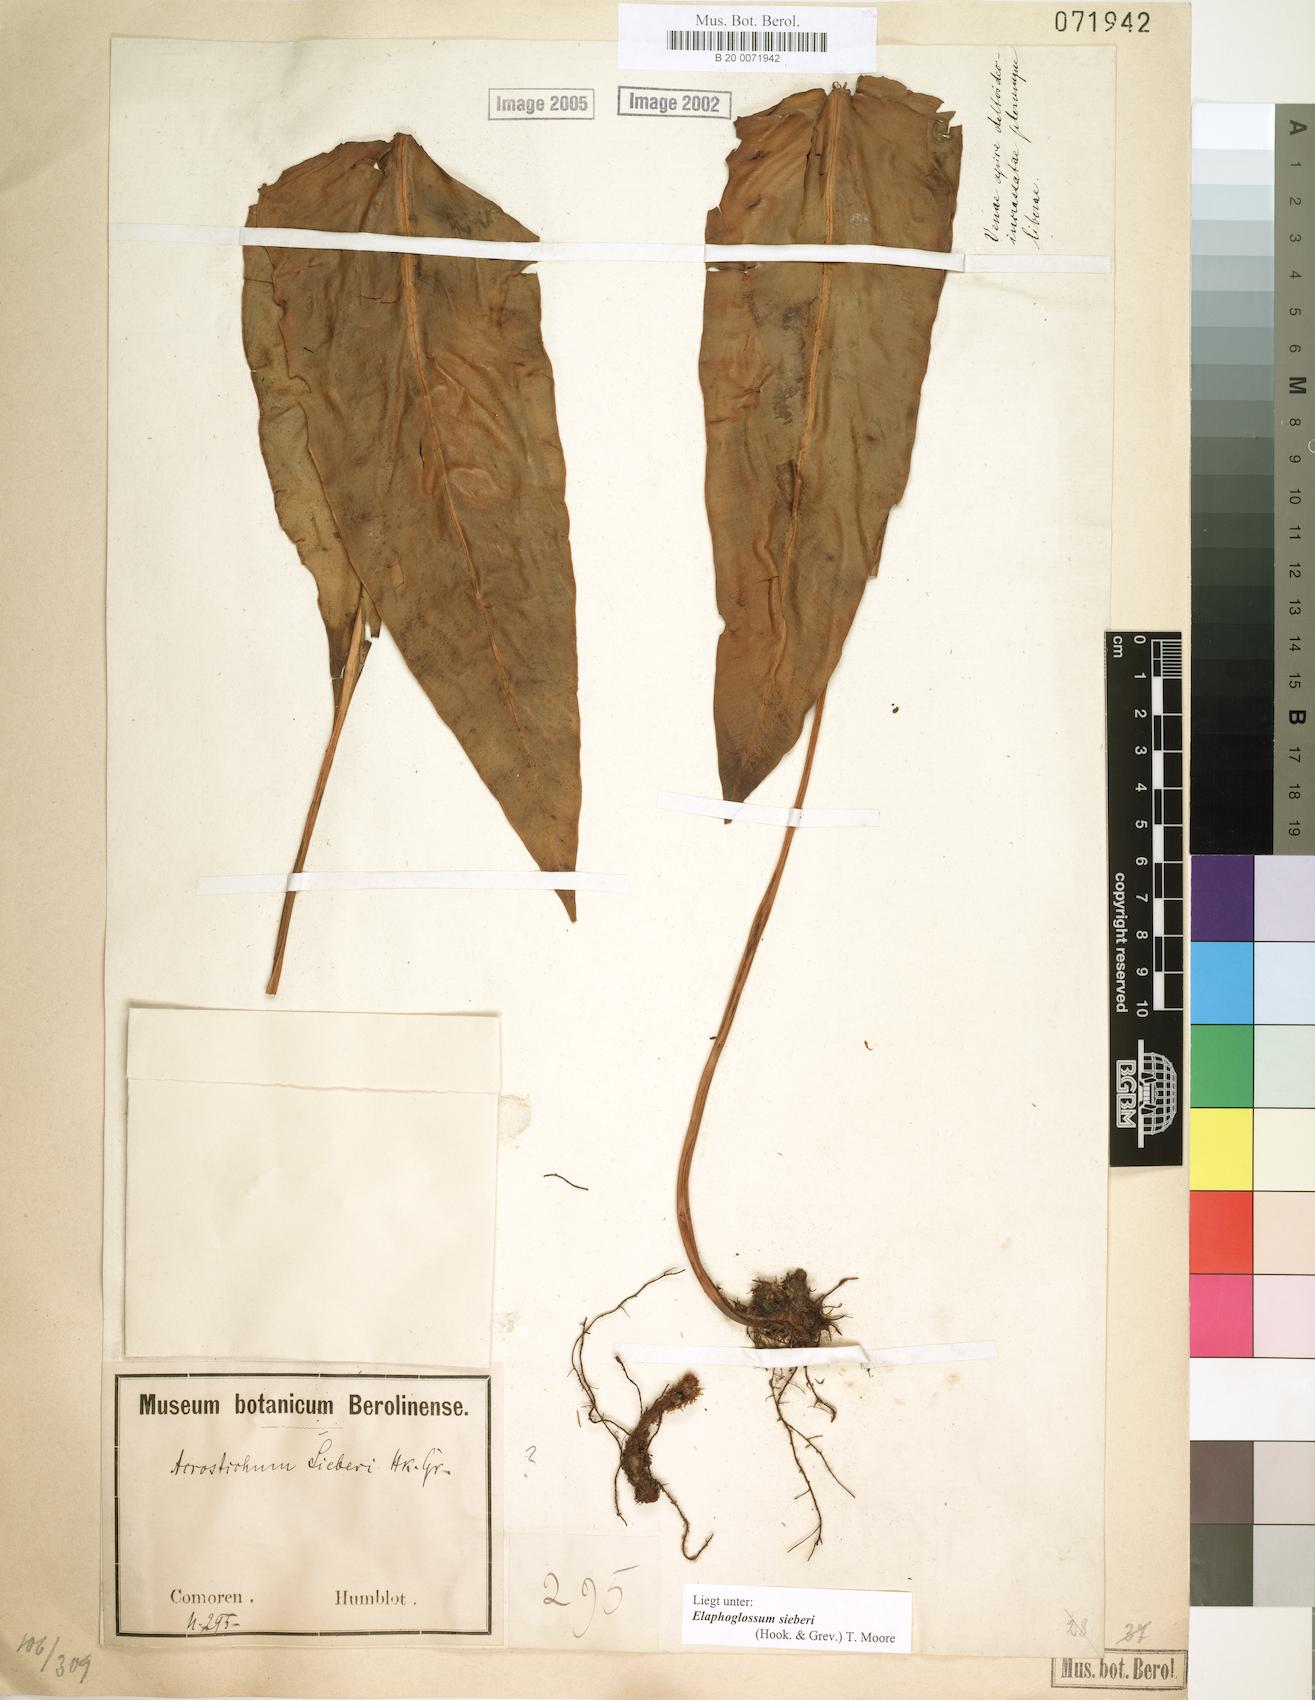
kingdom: Plantae
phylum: Tracheophyta
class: Polypodiopsida
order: Polypodiales
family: Dryopteridaceae
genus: Elaphoglossum
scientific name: Elaphoglossum sieberi
